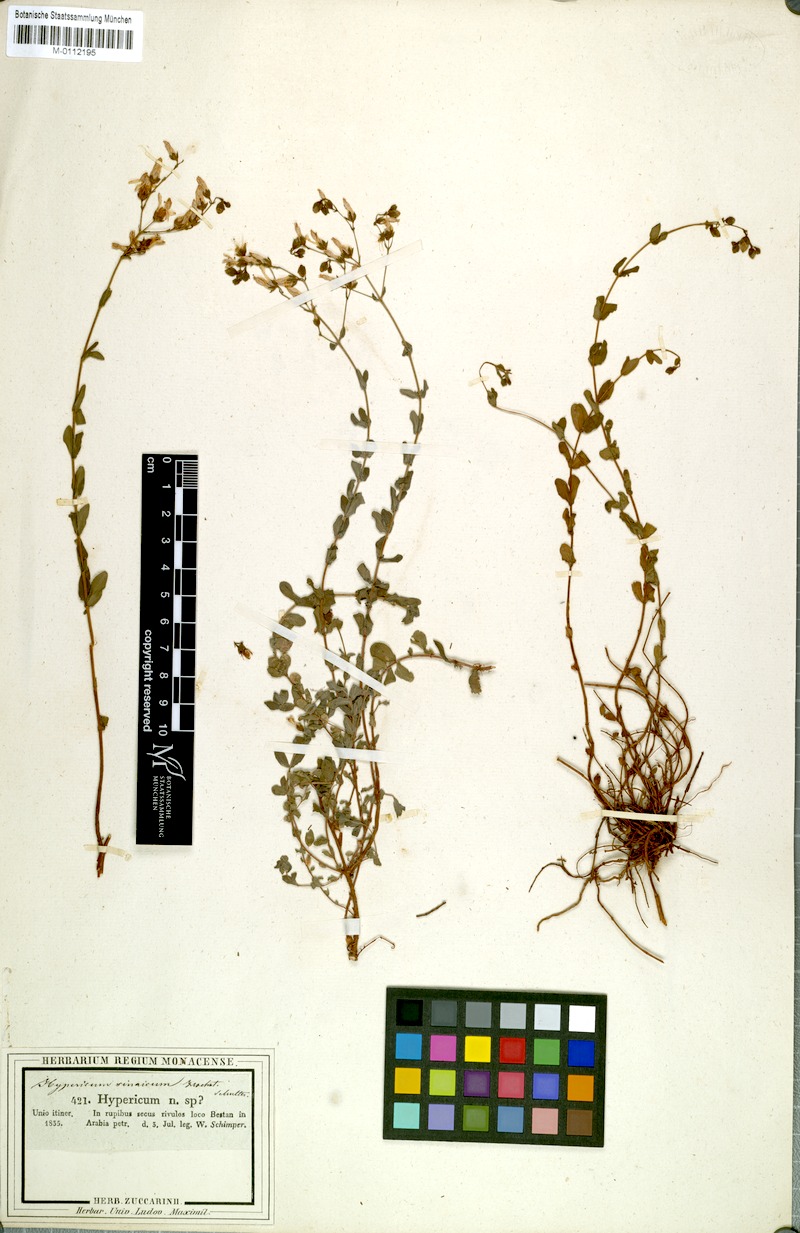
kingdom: Plantae
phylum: Tracheophyta
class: Magnoliopsida
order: Malpighiales
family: Hypericaceae
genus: Hypericum
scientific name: Hypericum sinaicum
